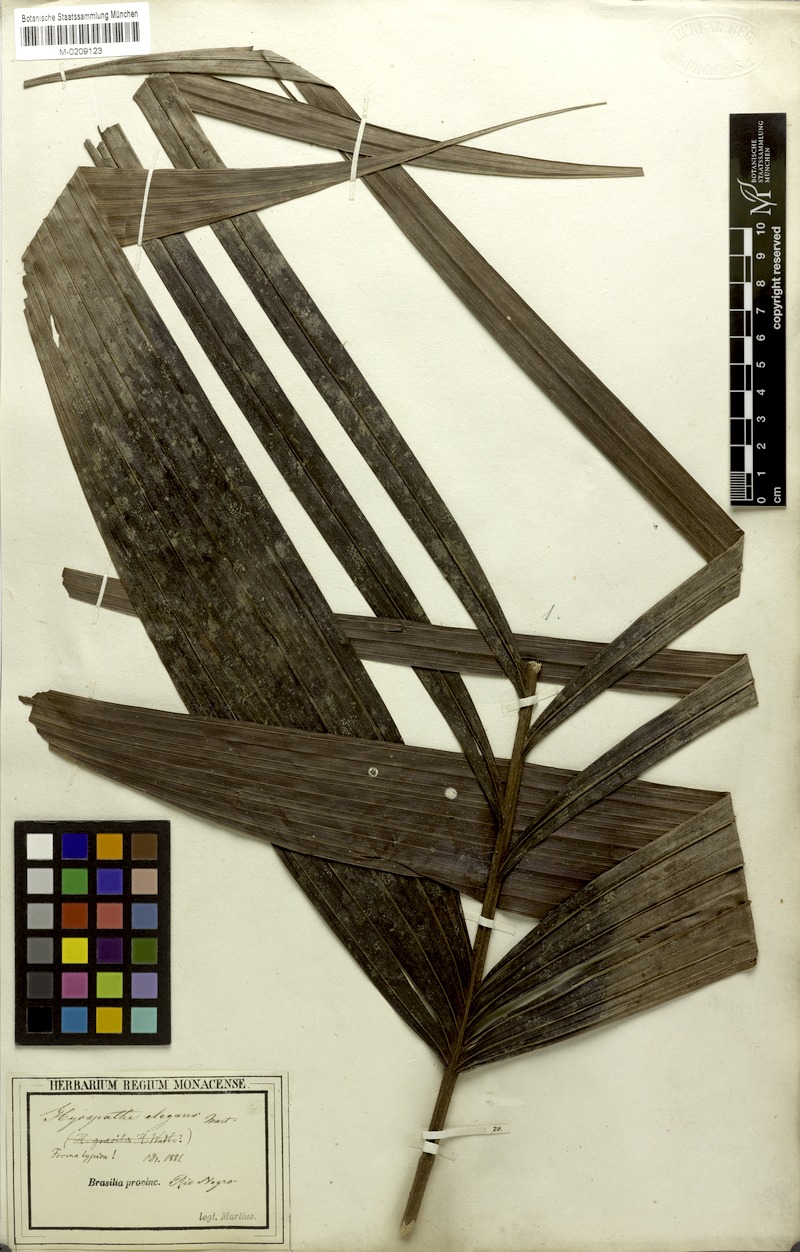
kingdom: Plantae
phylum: Tracheophyta
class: Liliopsida
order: Arecales
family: Arecaceae
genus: Hyospathe
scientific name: Hyospathe elegans
